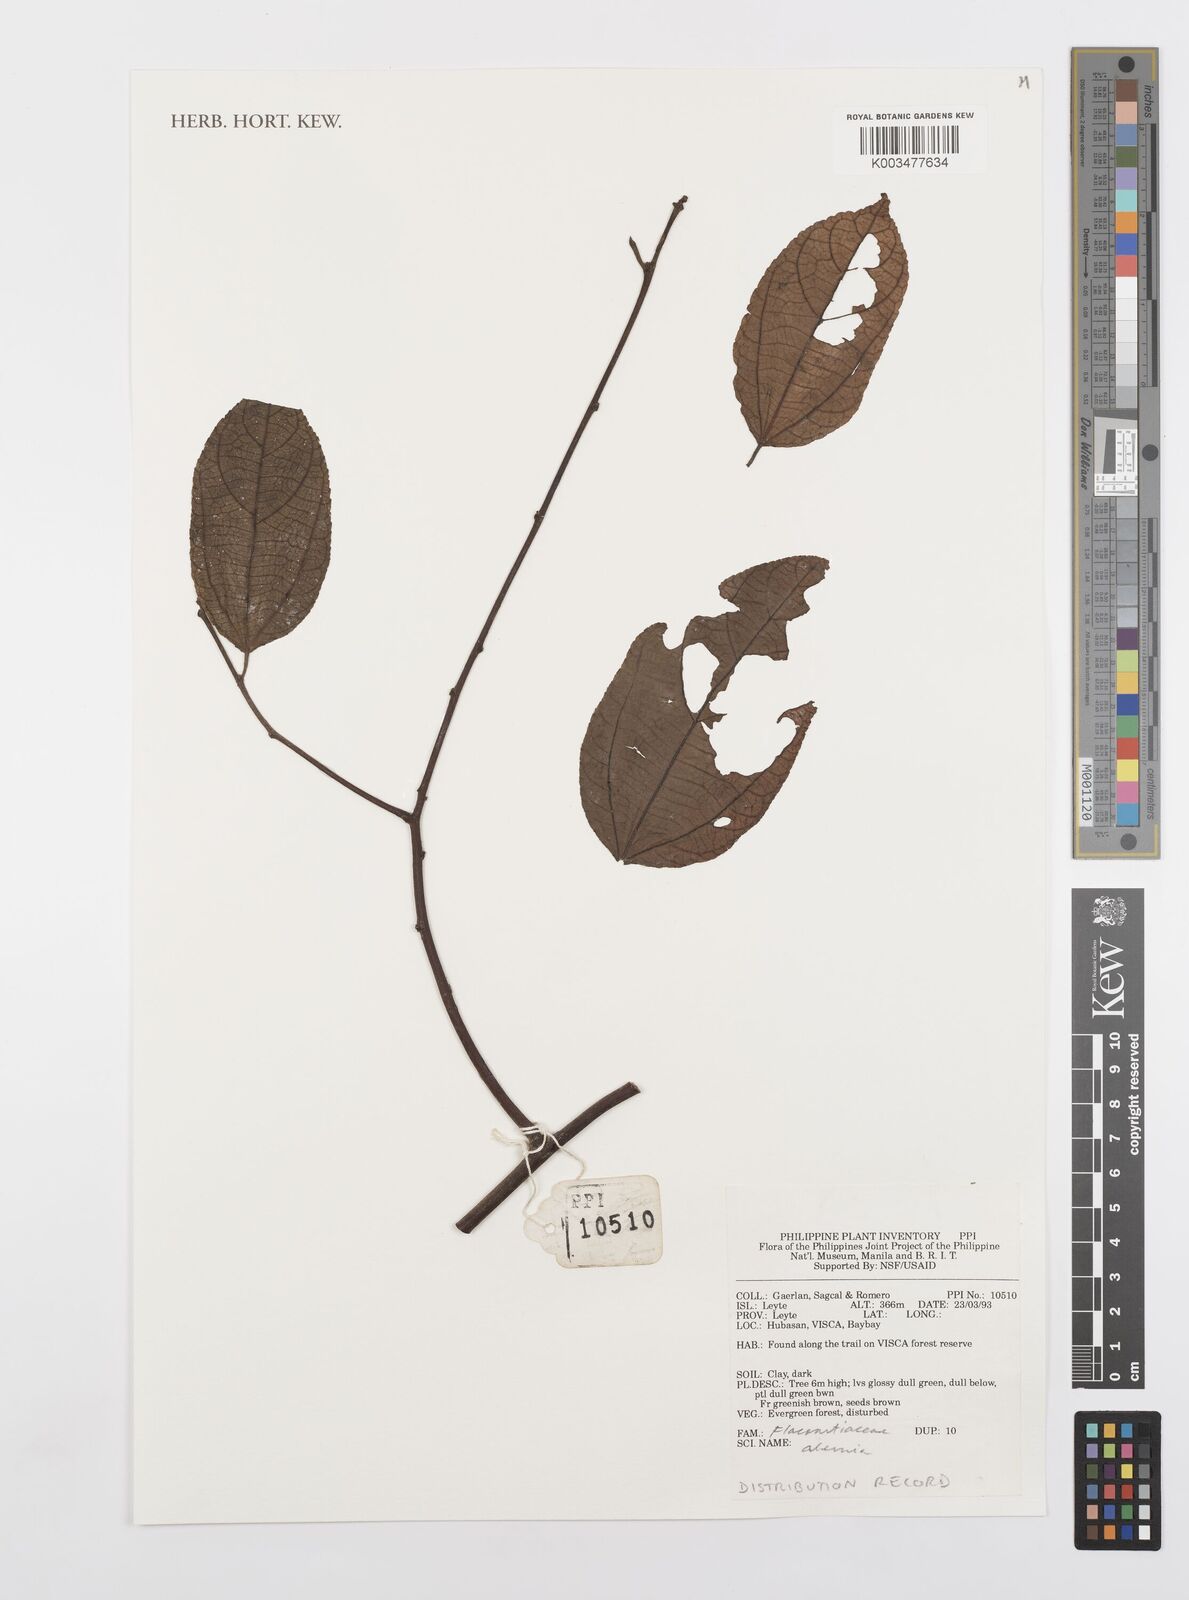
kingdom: Plantae
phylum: Tracheophyta
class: Magnoliopsida
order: Malpighiales
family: Achariaceae
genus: Ahernia
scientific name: Ahernia
